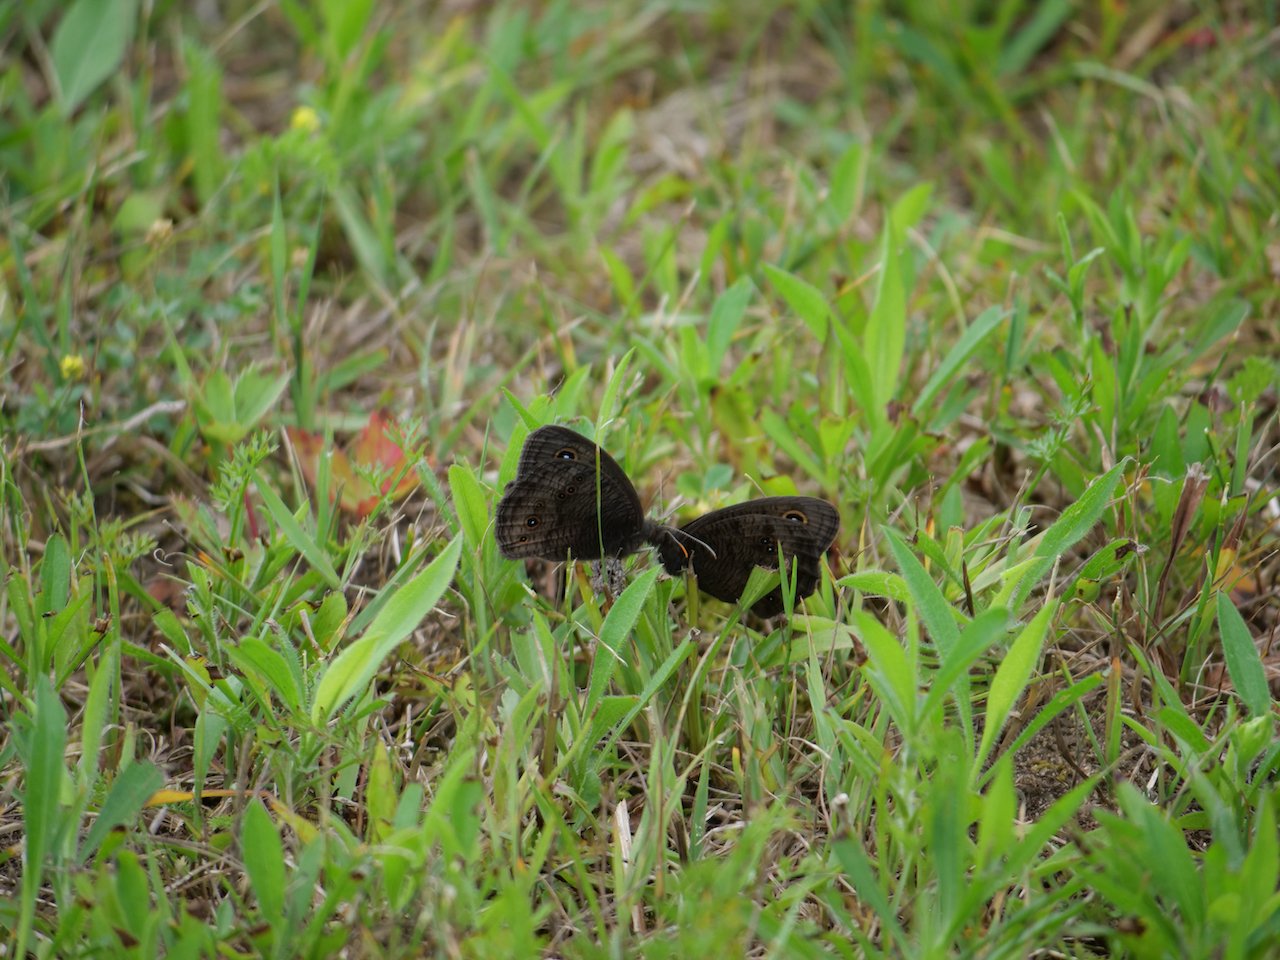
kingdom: Animalia
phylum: Arthropoda
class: Insecta
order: Lepidoptera
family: Nymphalidae
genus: Cercyonis
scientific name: Cercyonis pegala
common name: Common Wood-Nymph
